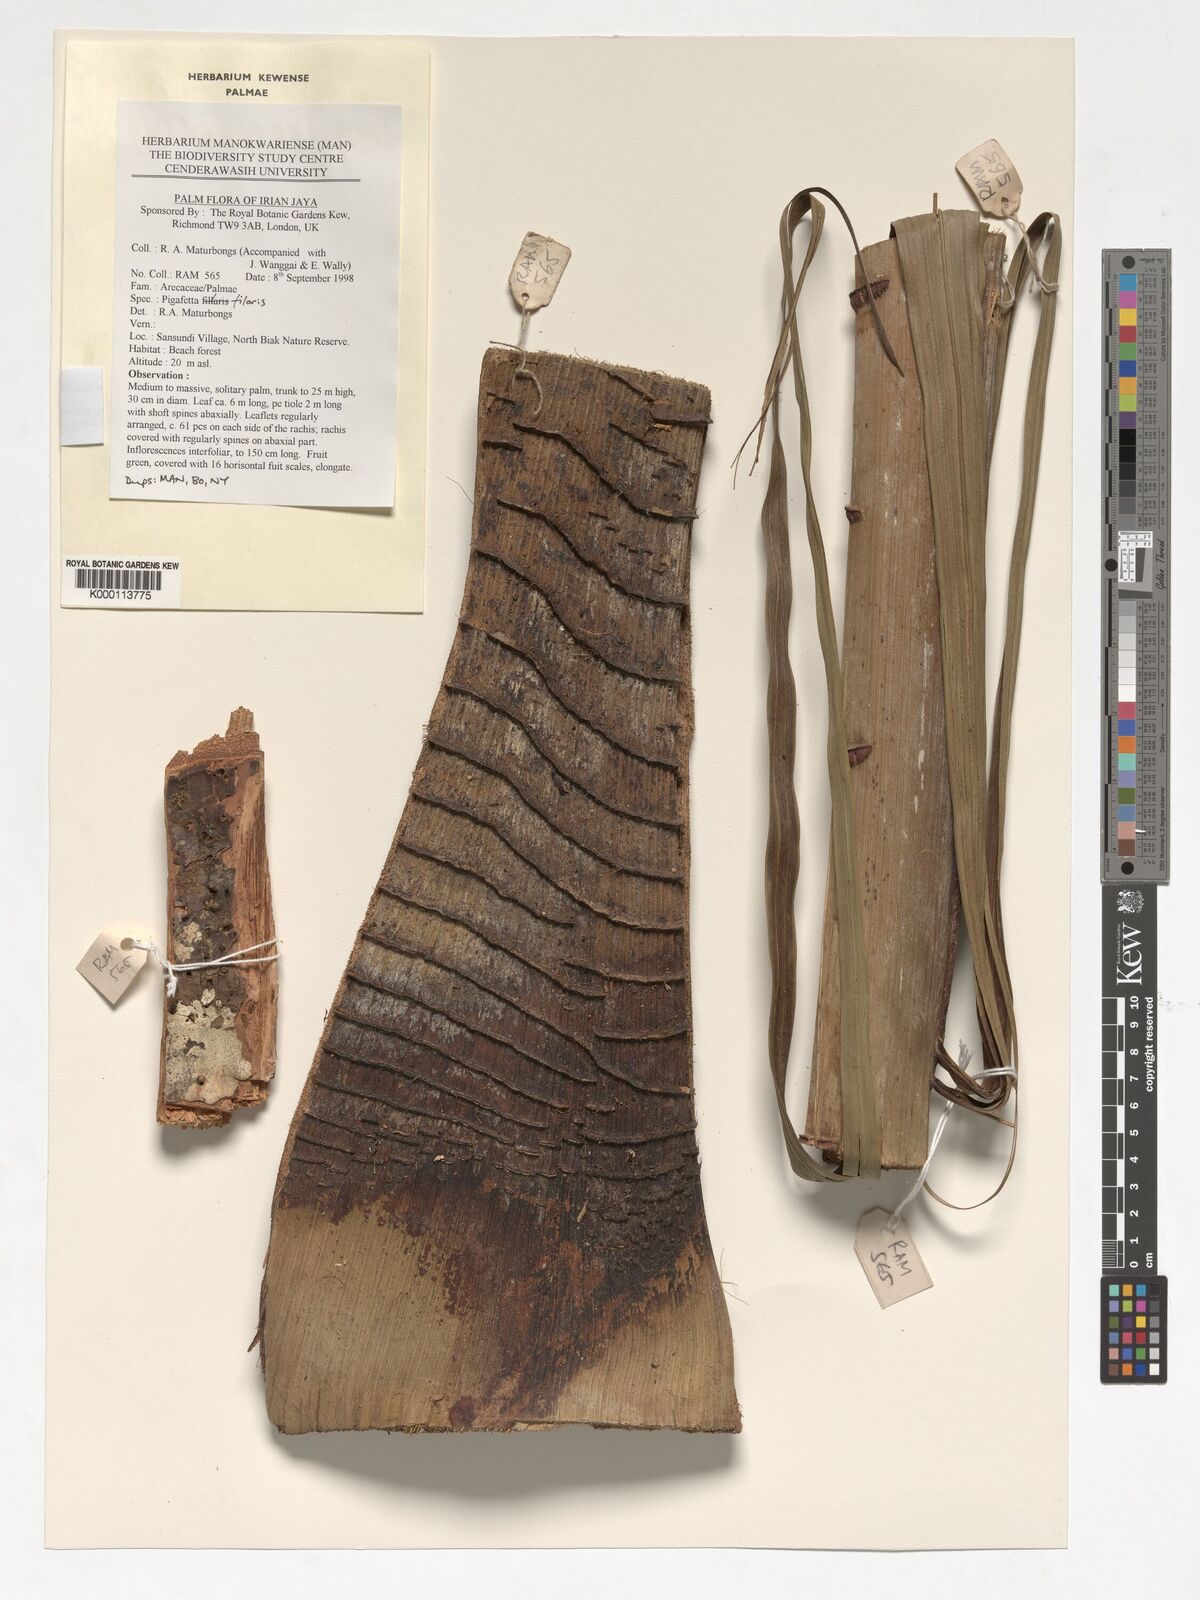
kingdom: Plantae
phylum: Tracheophyta
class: Liliopsida
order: Arecales
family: Arecaceae
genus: Pigafetta
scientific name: Pigafetta filaris
